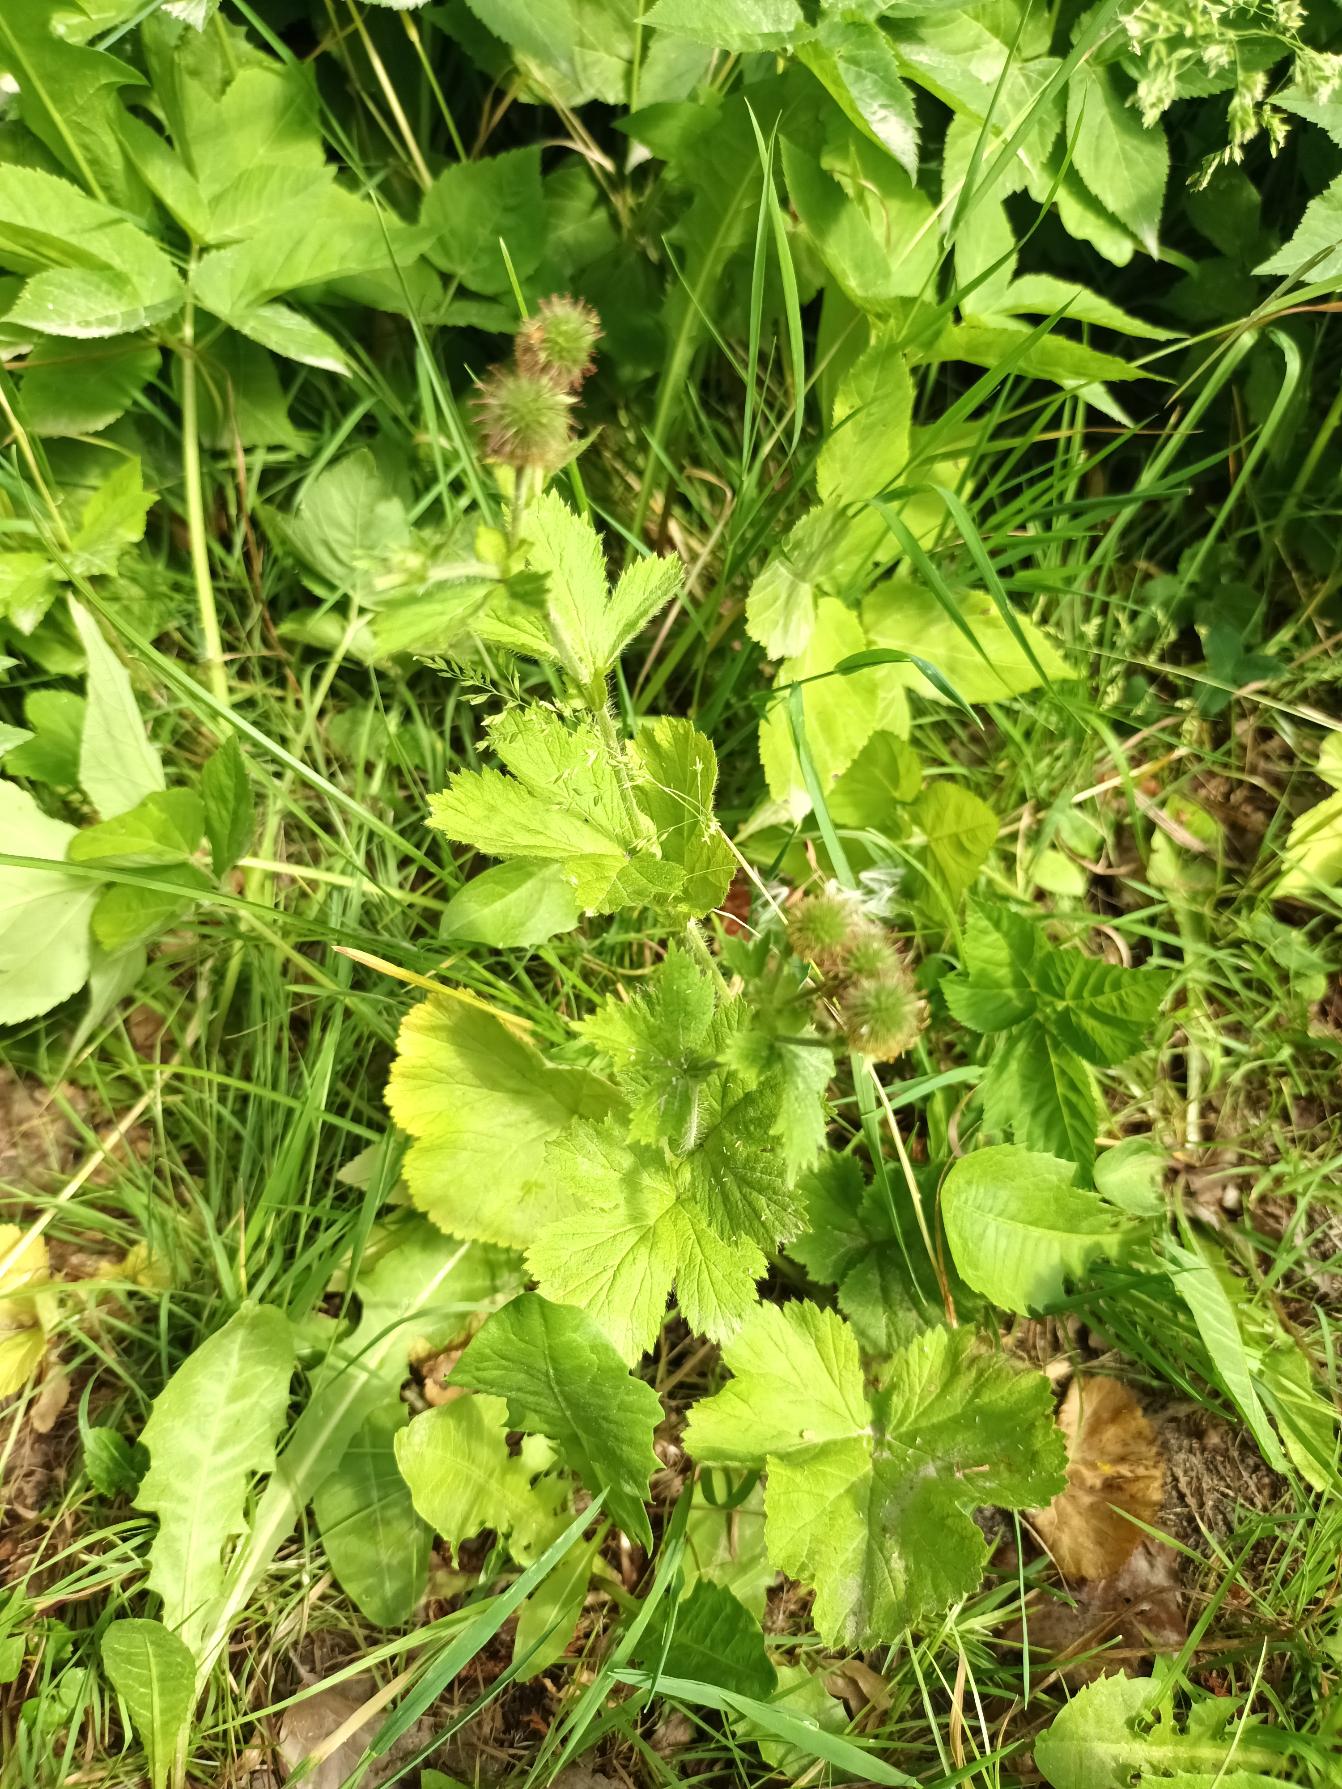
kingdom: Plantae
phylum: Tracheophyta
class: Magnoliopsida
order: Rosales
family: Rosaceae
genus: Geum
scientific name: Geum macrophyllum
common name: Amerikansk nellikerod
